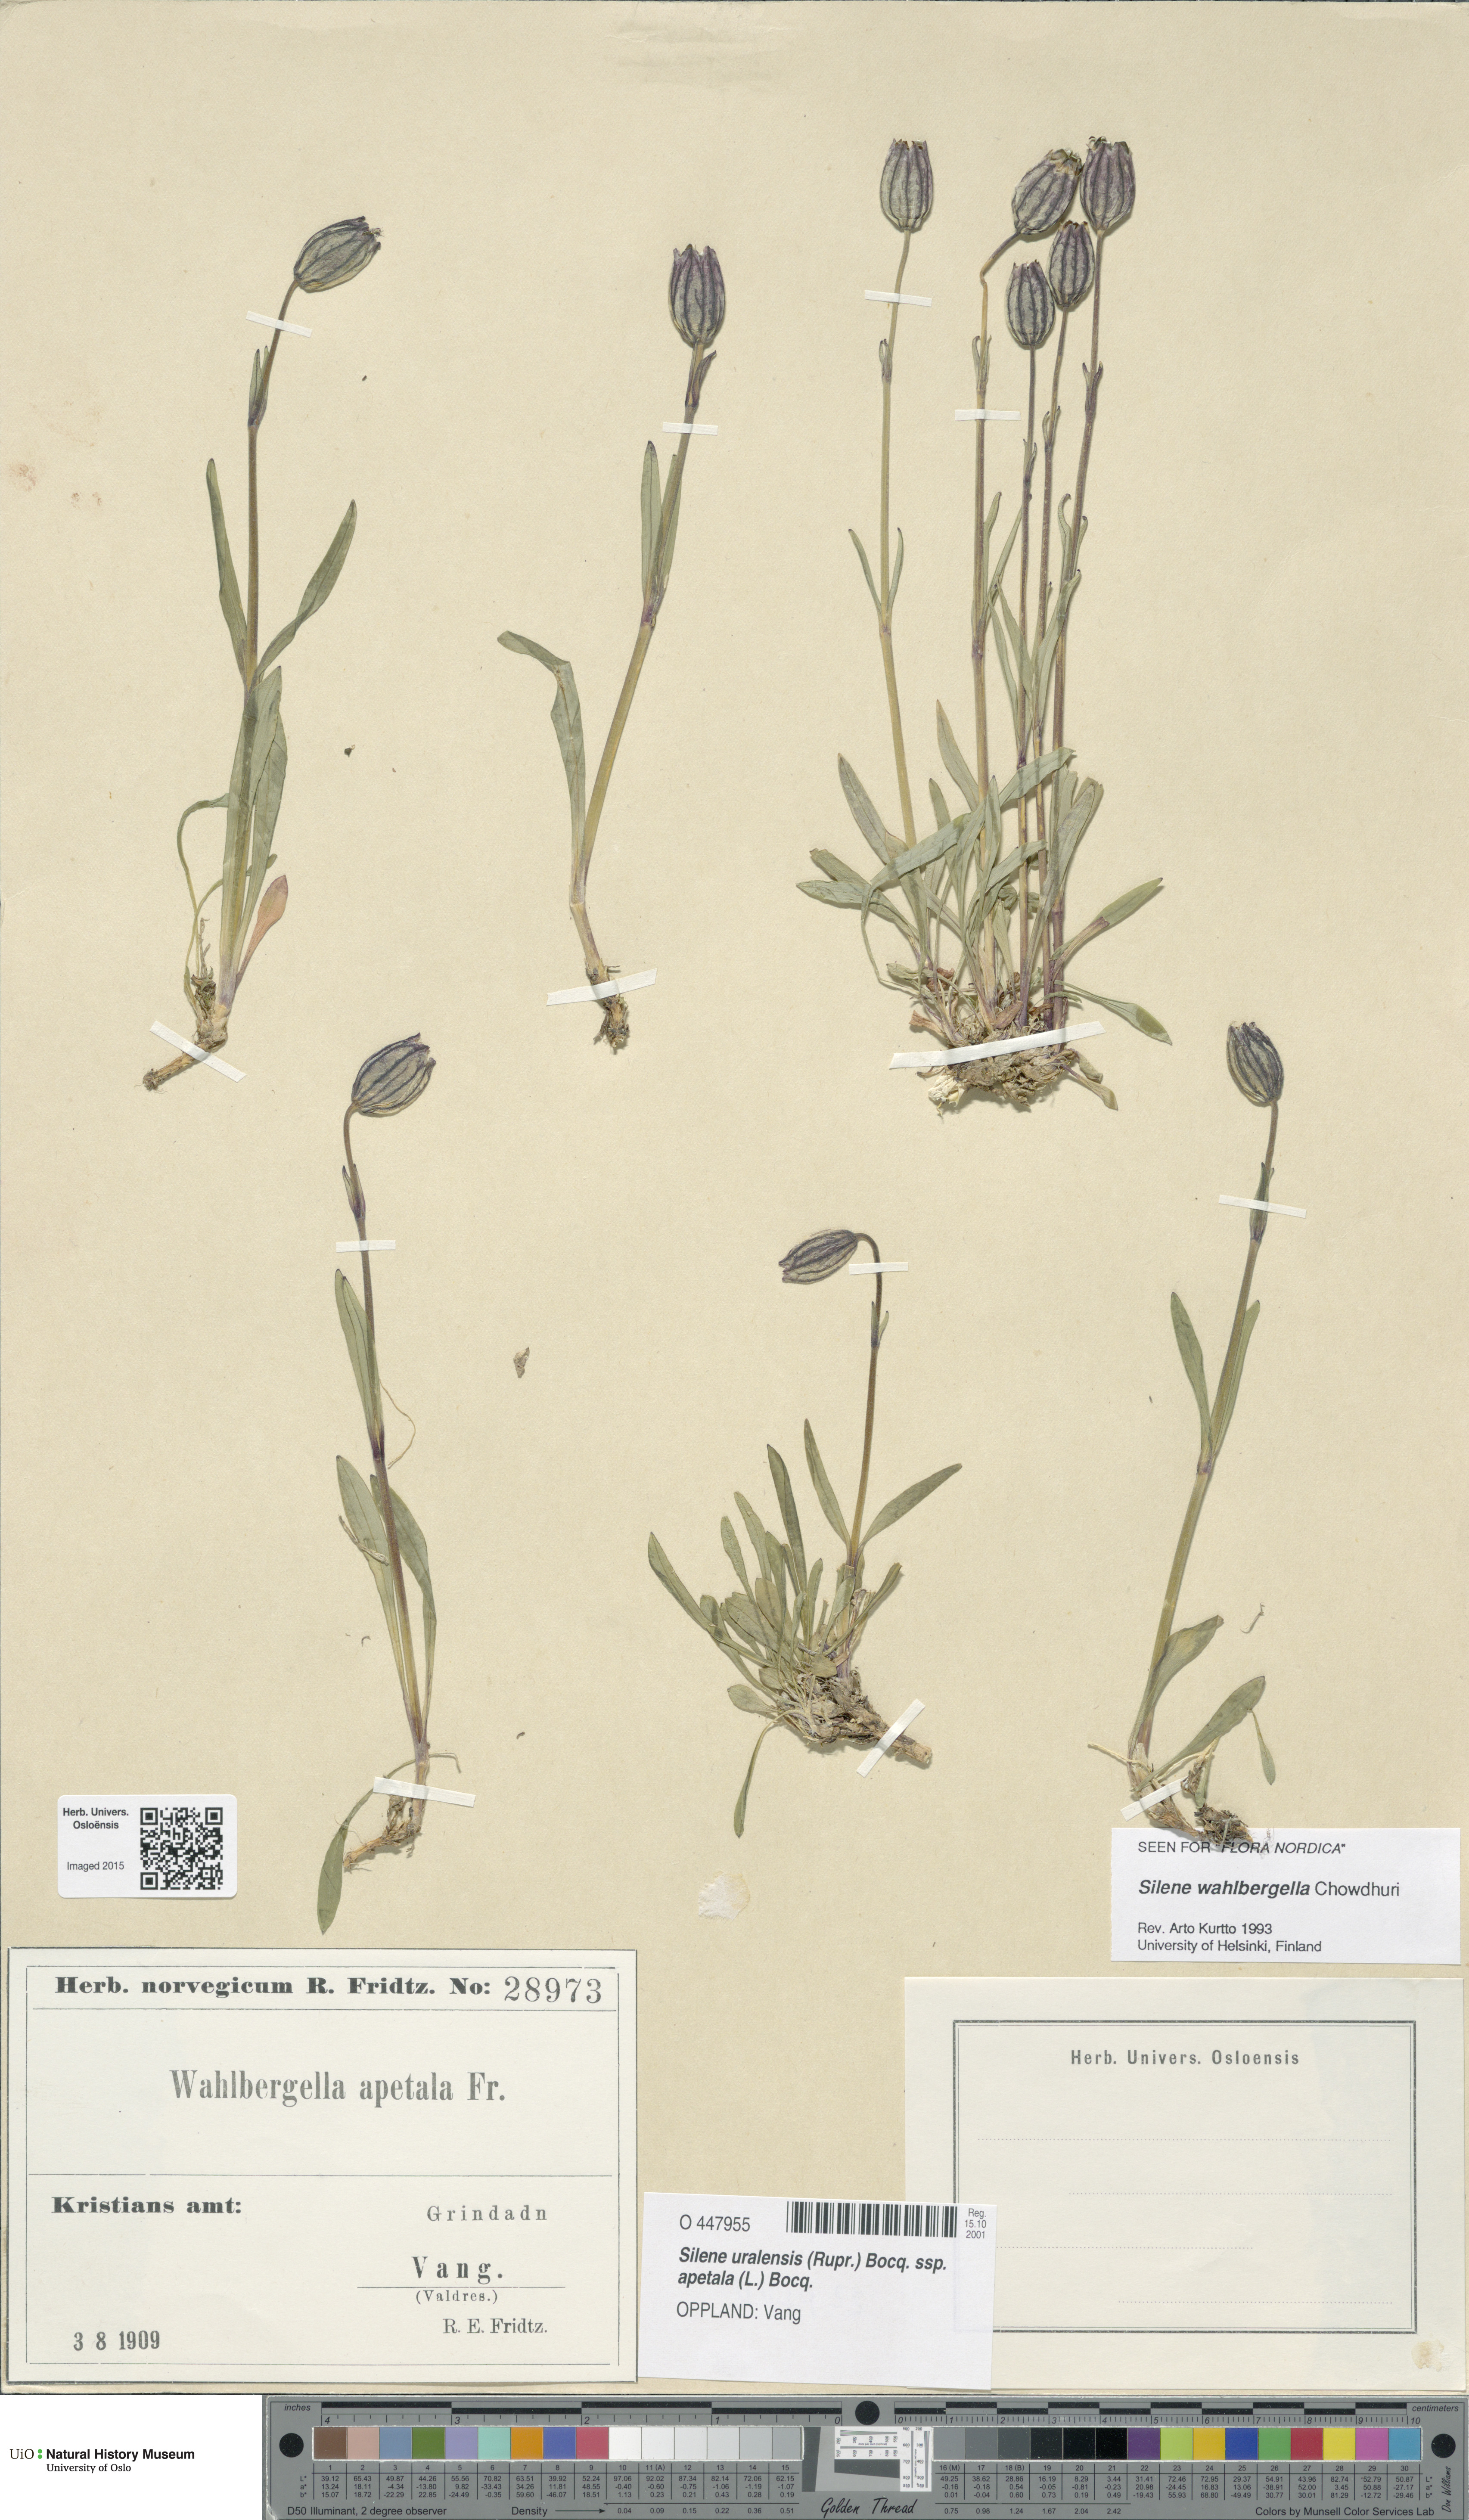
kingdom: Plantae
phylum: Tracheophyta
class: Magnoliopsida
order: Caryophyllales
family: Caryophyllaceae
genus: Silene
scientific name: Silene wahlbergella
